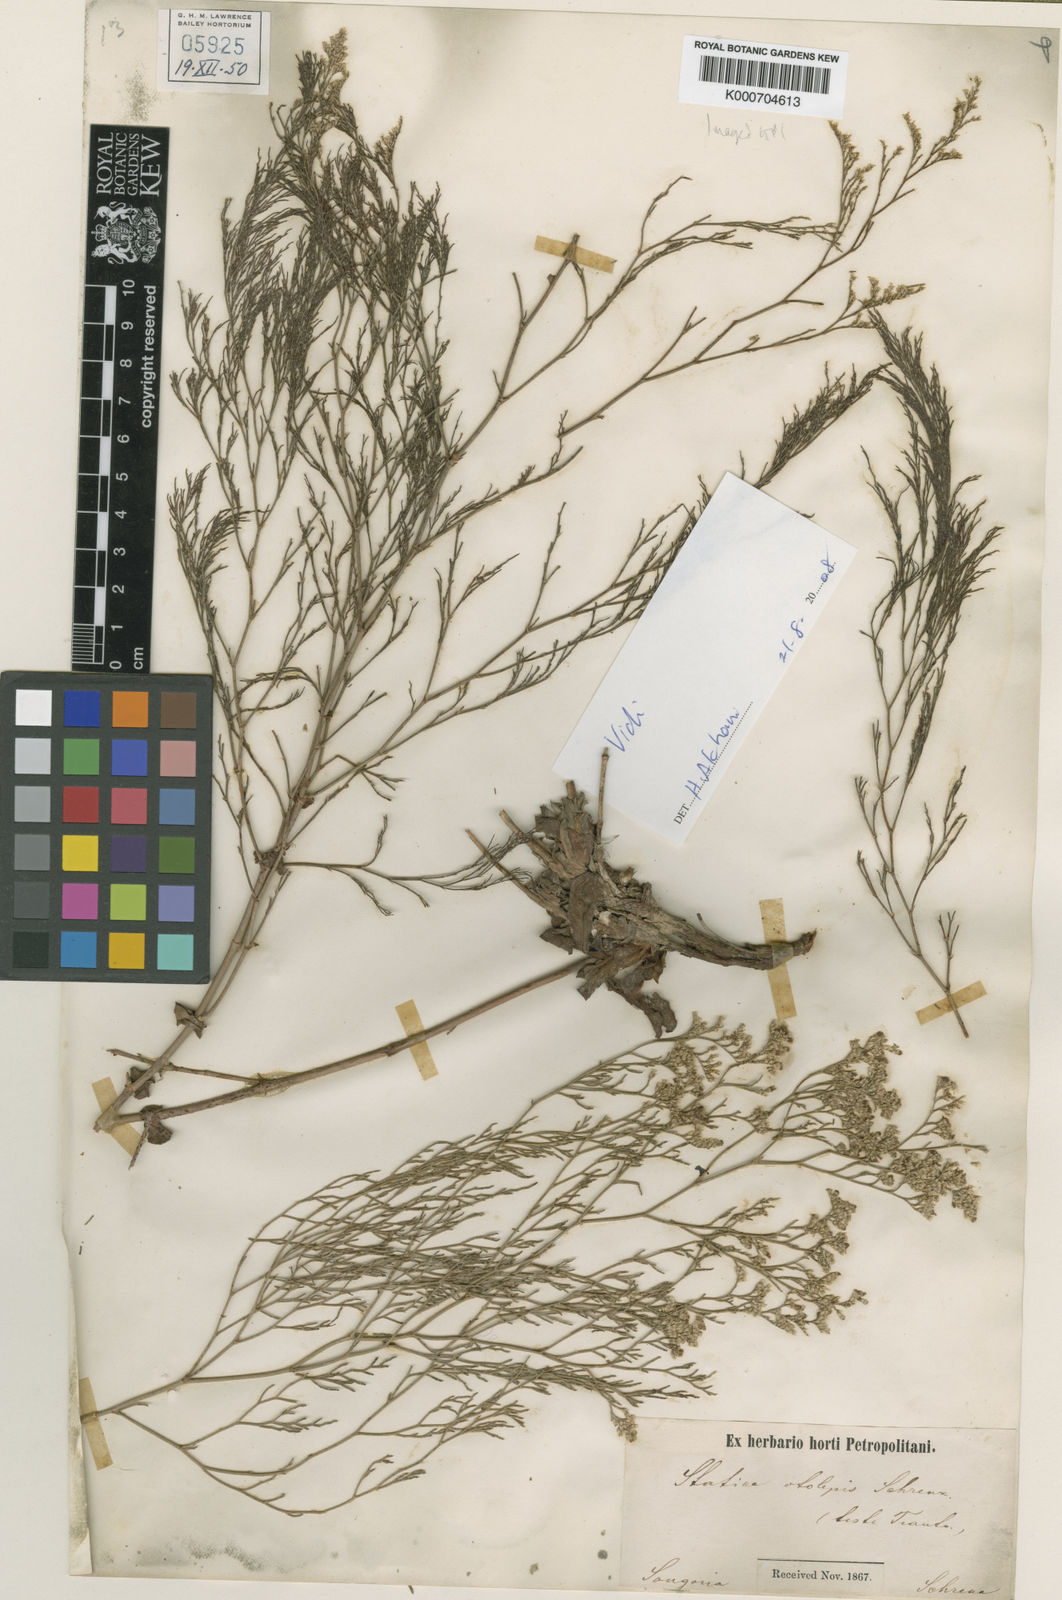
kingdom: Plantae
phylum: Tracheophyta
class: Magnoliopsida
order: Caryophyllales
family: Plumbaginaceae
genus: Limonium
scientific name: Limonium otolepis
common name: Saltmarsh sea lavender
